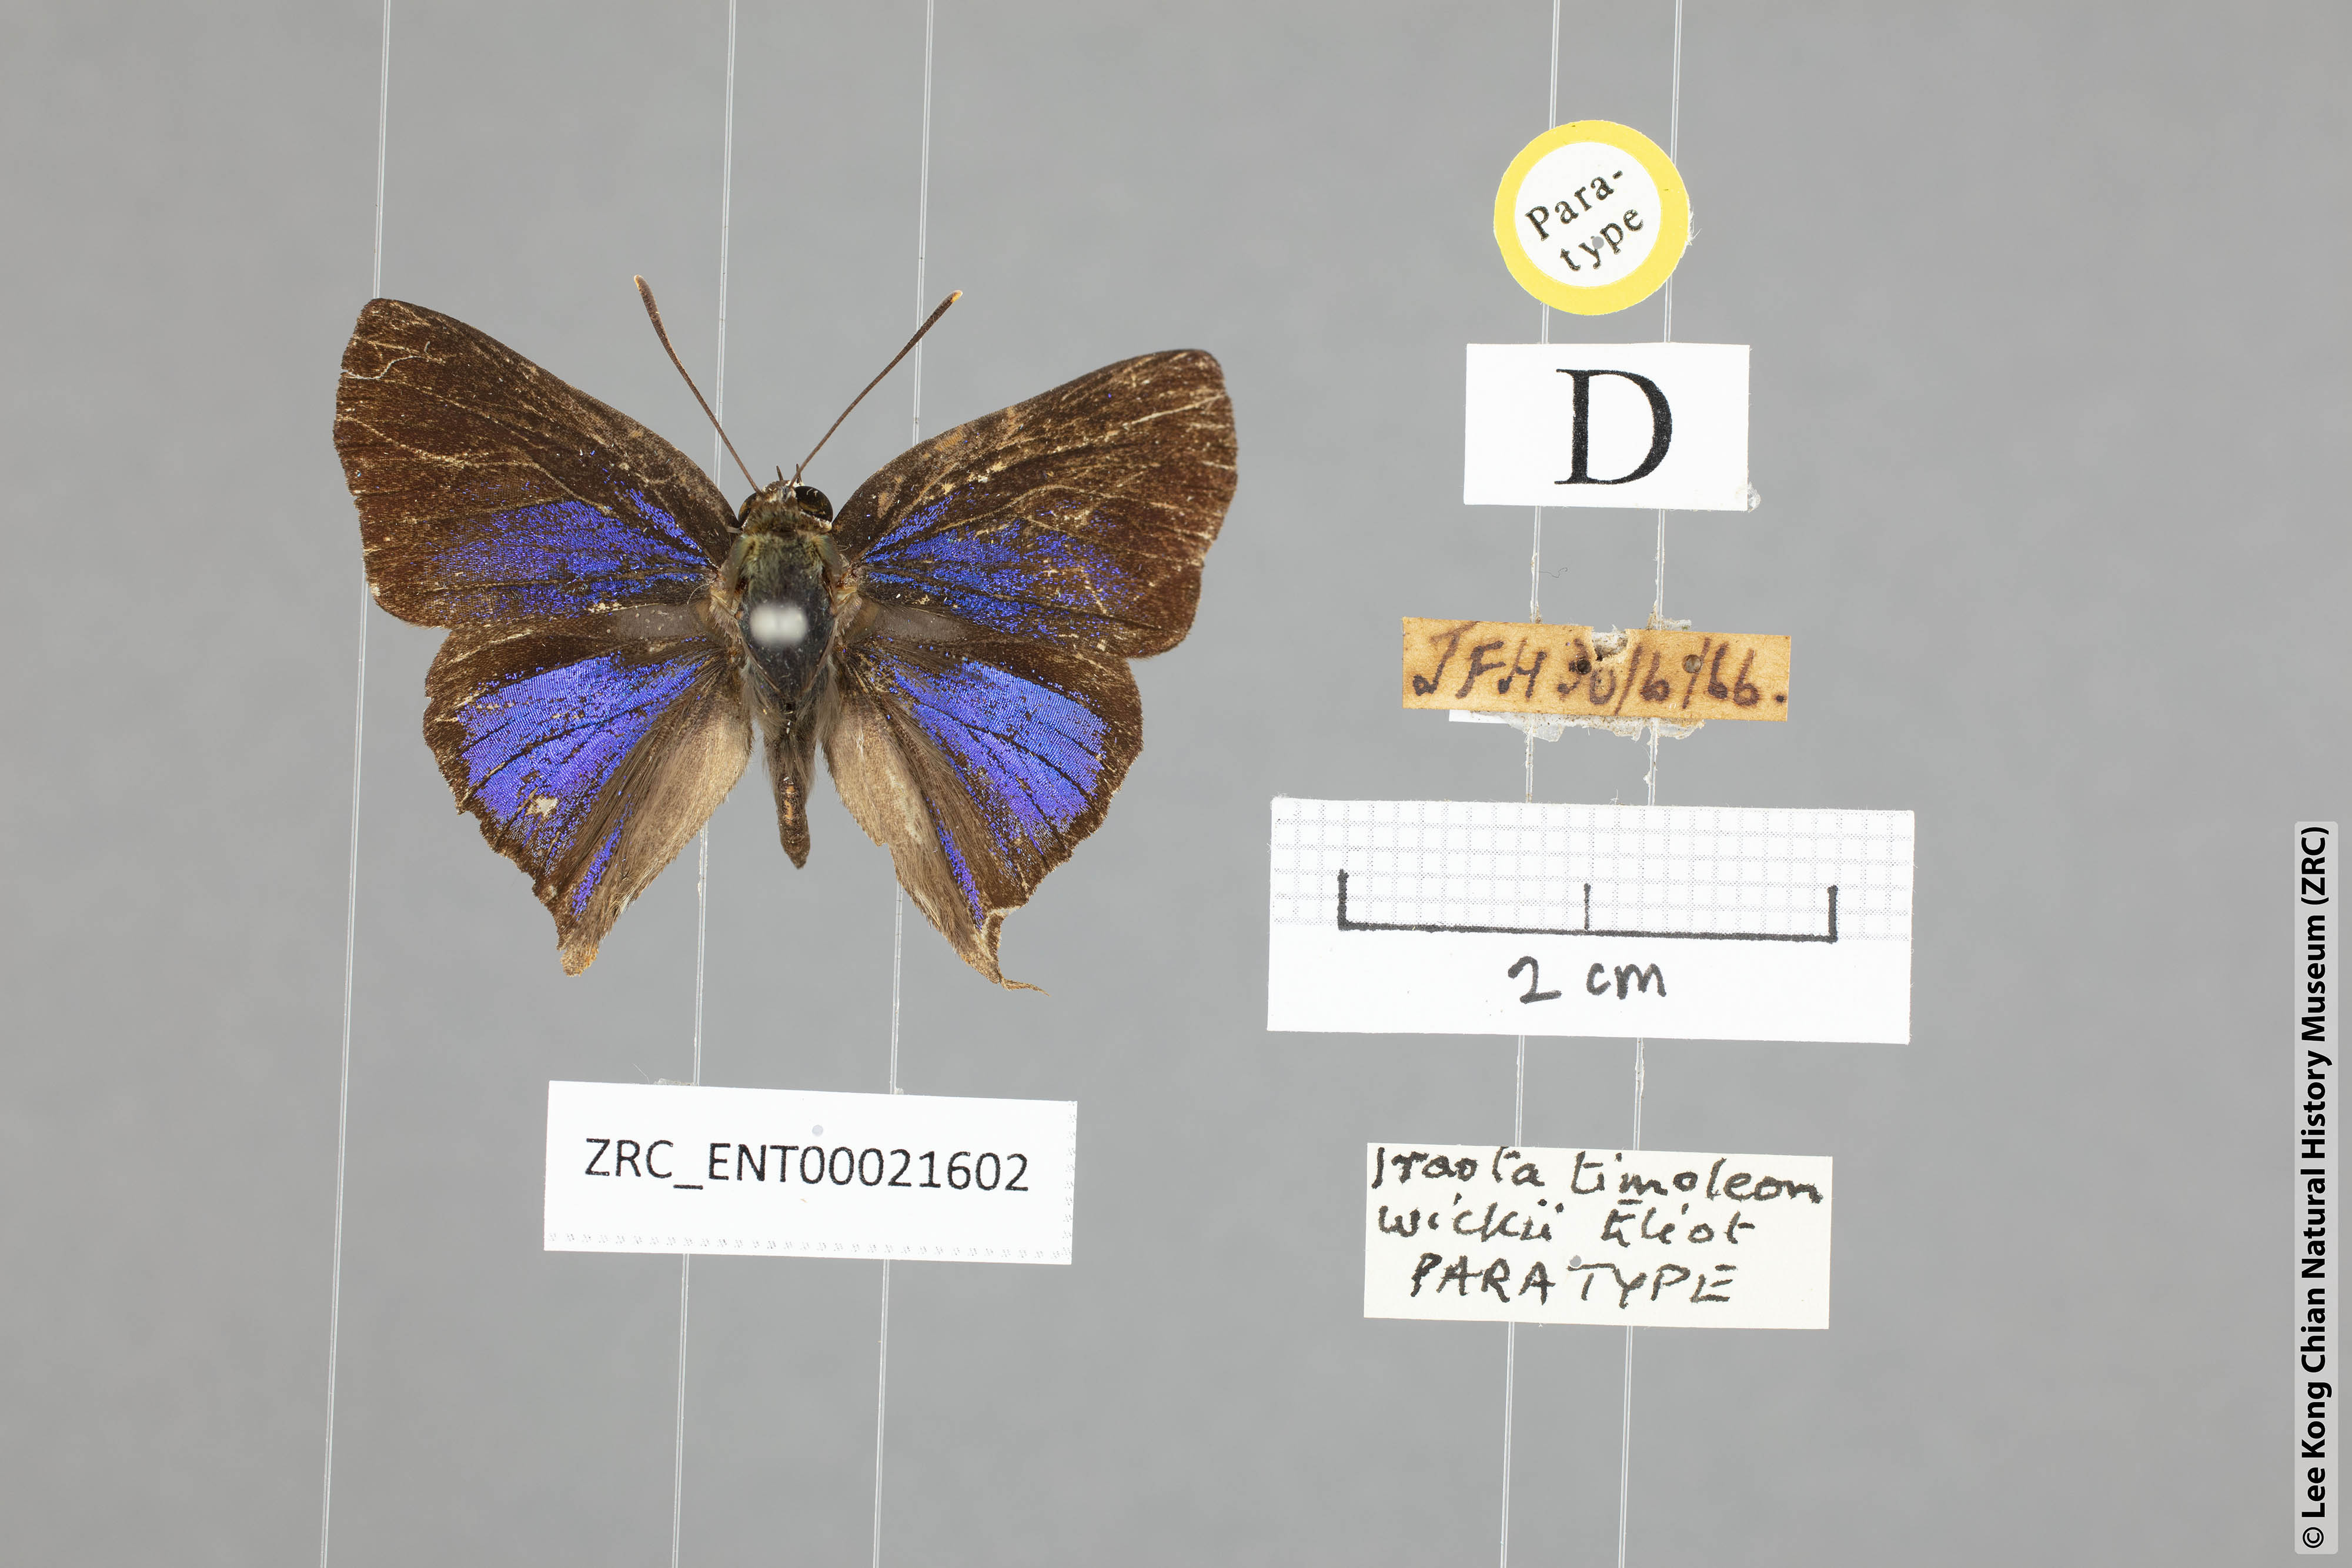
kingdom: Animalia
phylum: Arthropoda
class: Insecta
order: Lepidoptera
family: Lycaenidae
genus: Iraota
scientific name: Iraota timoleon
